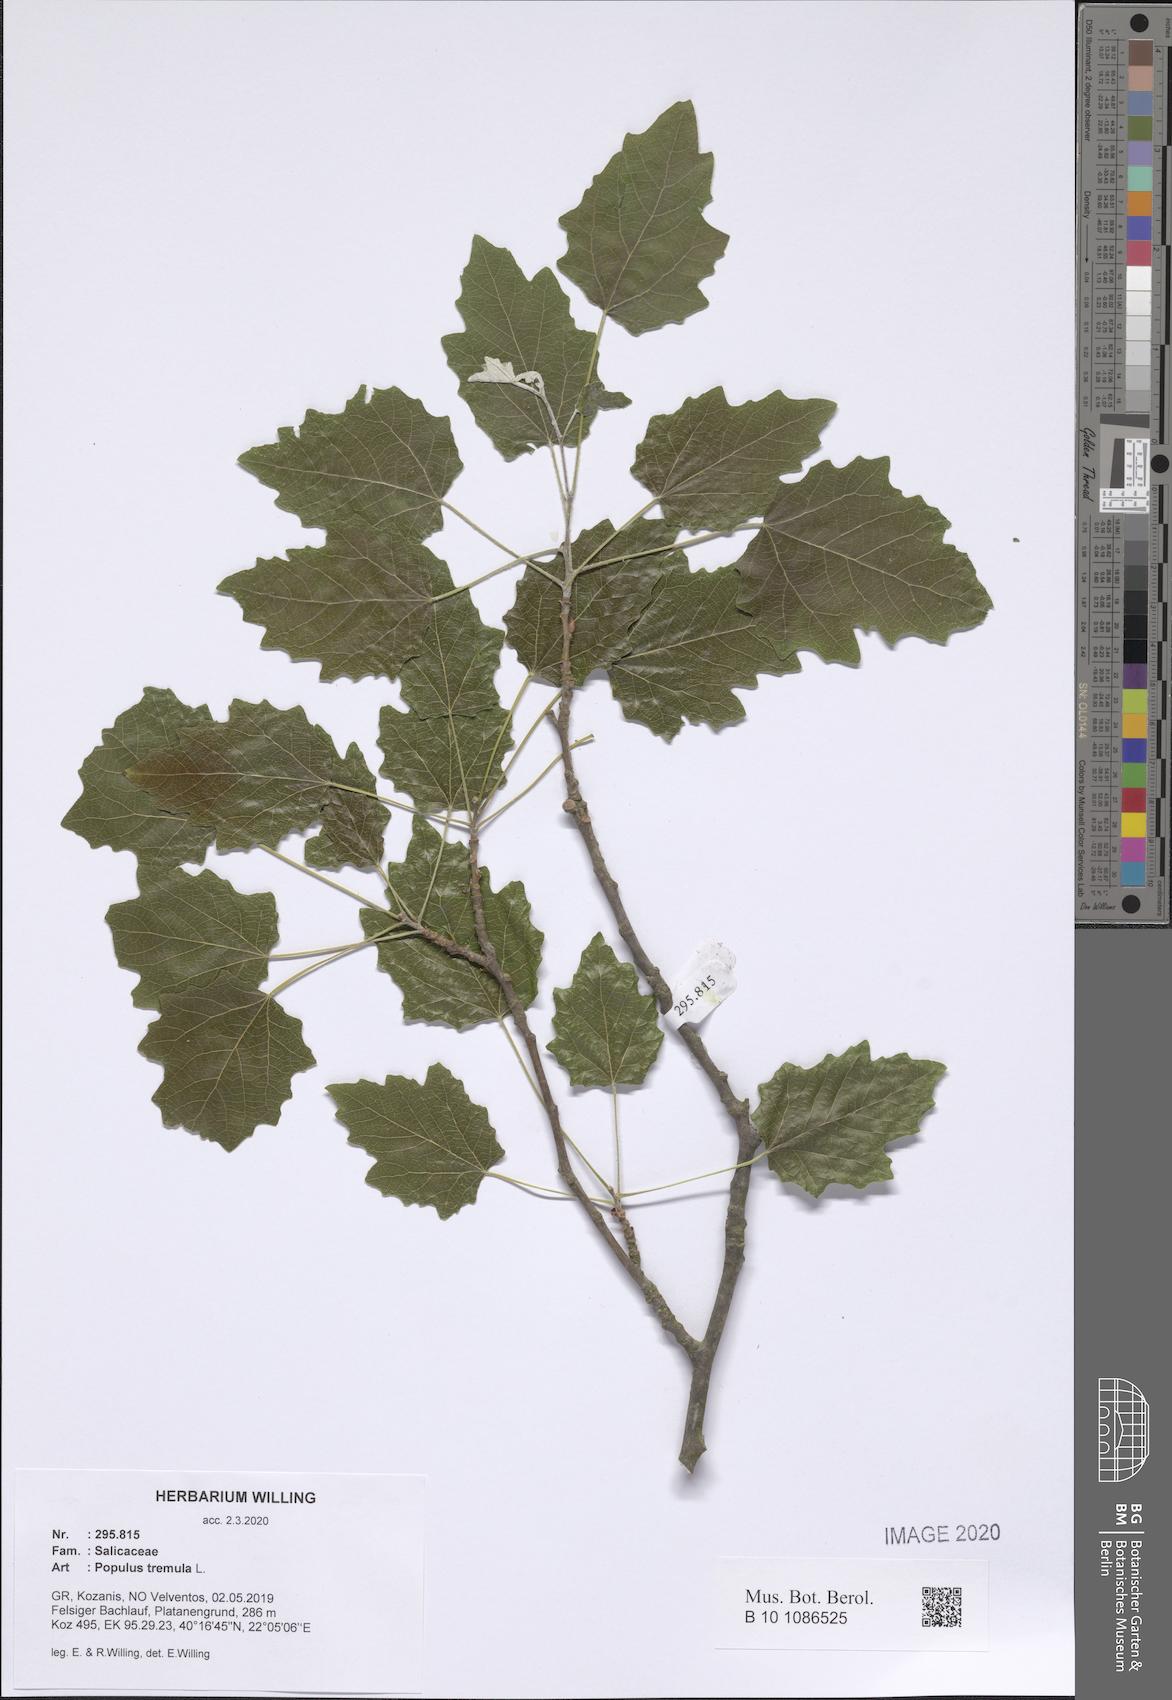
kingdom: Plantae
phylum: Tracheophyta
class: Magnoliopsida
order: Malpighiales
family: Salicaceae
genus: Populus
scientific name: Populus tremula
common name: European aspen
